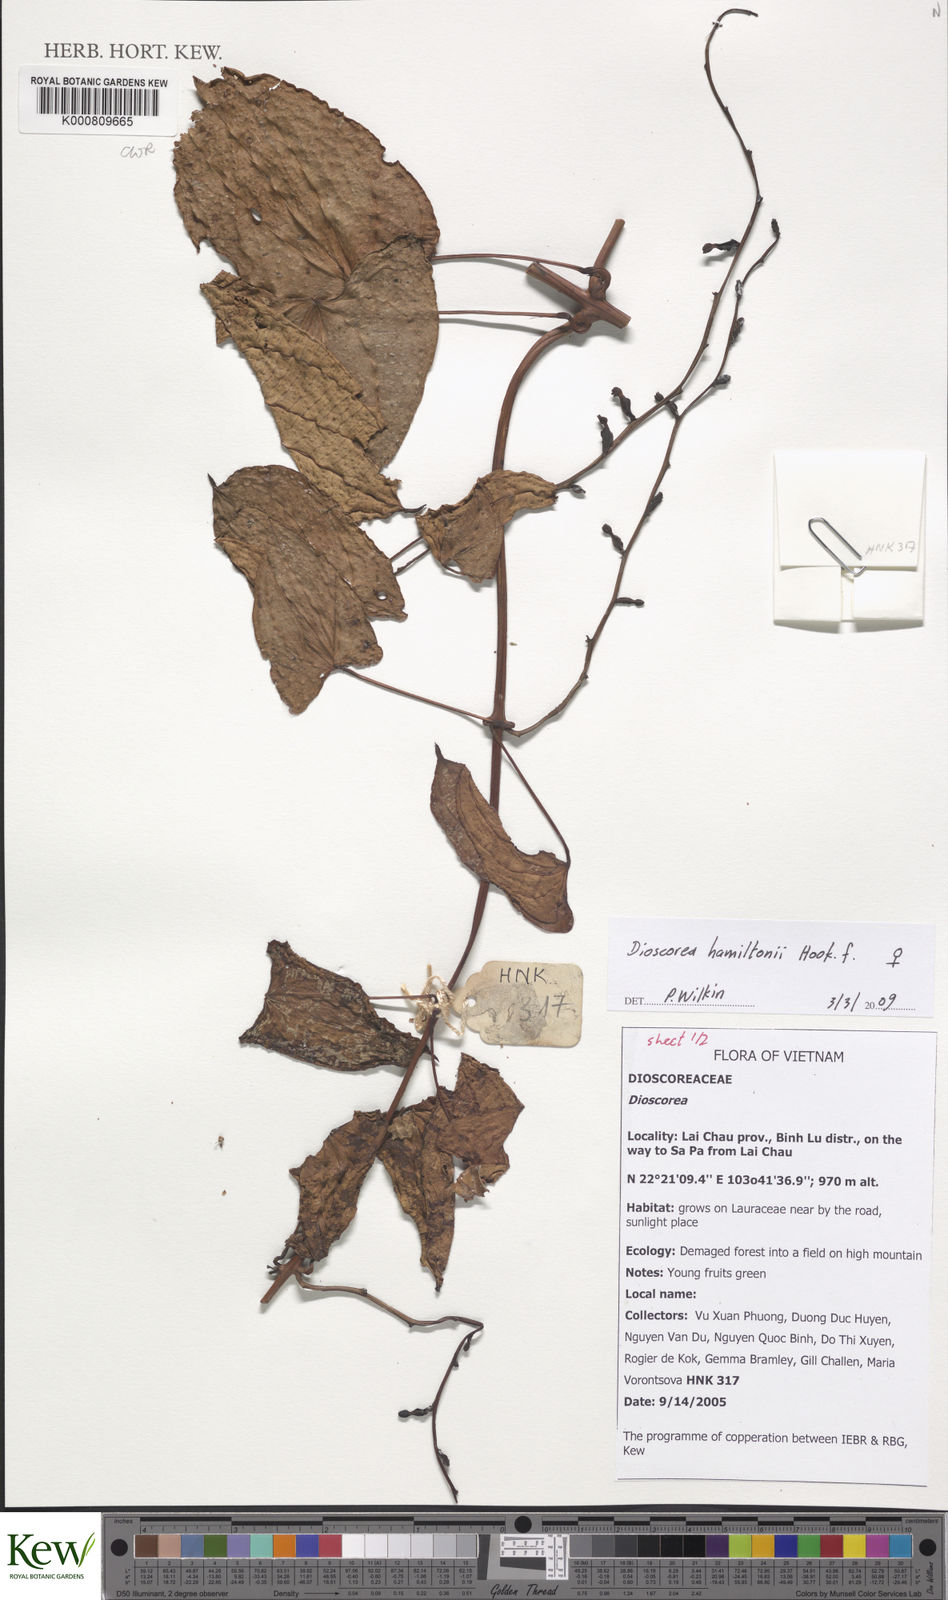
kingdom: Plantae
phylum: Tracheophyta
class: Liliopsida
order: Dioscoreales
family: Dioscoreaceae
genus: Dioscorea
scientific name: Dioscorea hamiltonii
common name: Mountain yam
